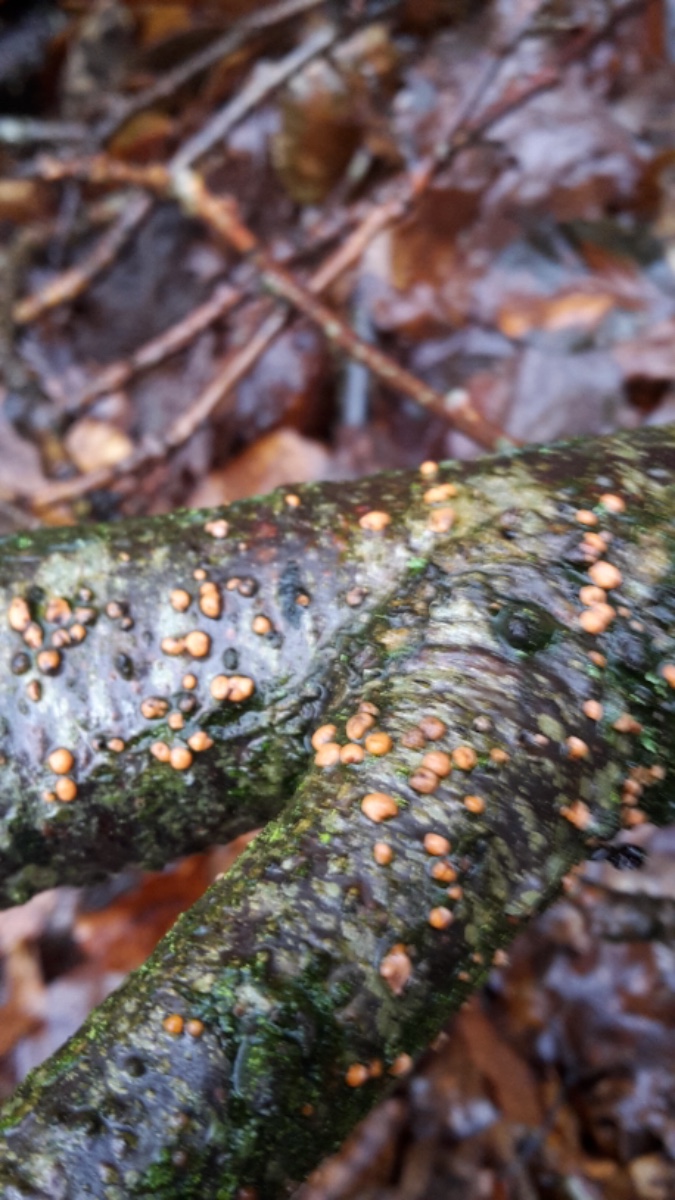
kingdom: Fungi
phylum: Ascomycota
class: Sordariomycetes
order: Hypocreales
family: Nectriaceae
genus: Nectria
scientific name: Nectria cinnabarina
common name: almindelig cinnobersvamp
